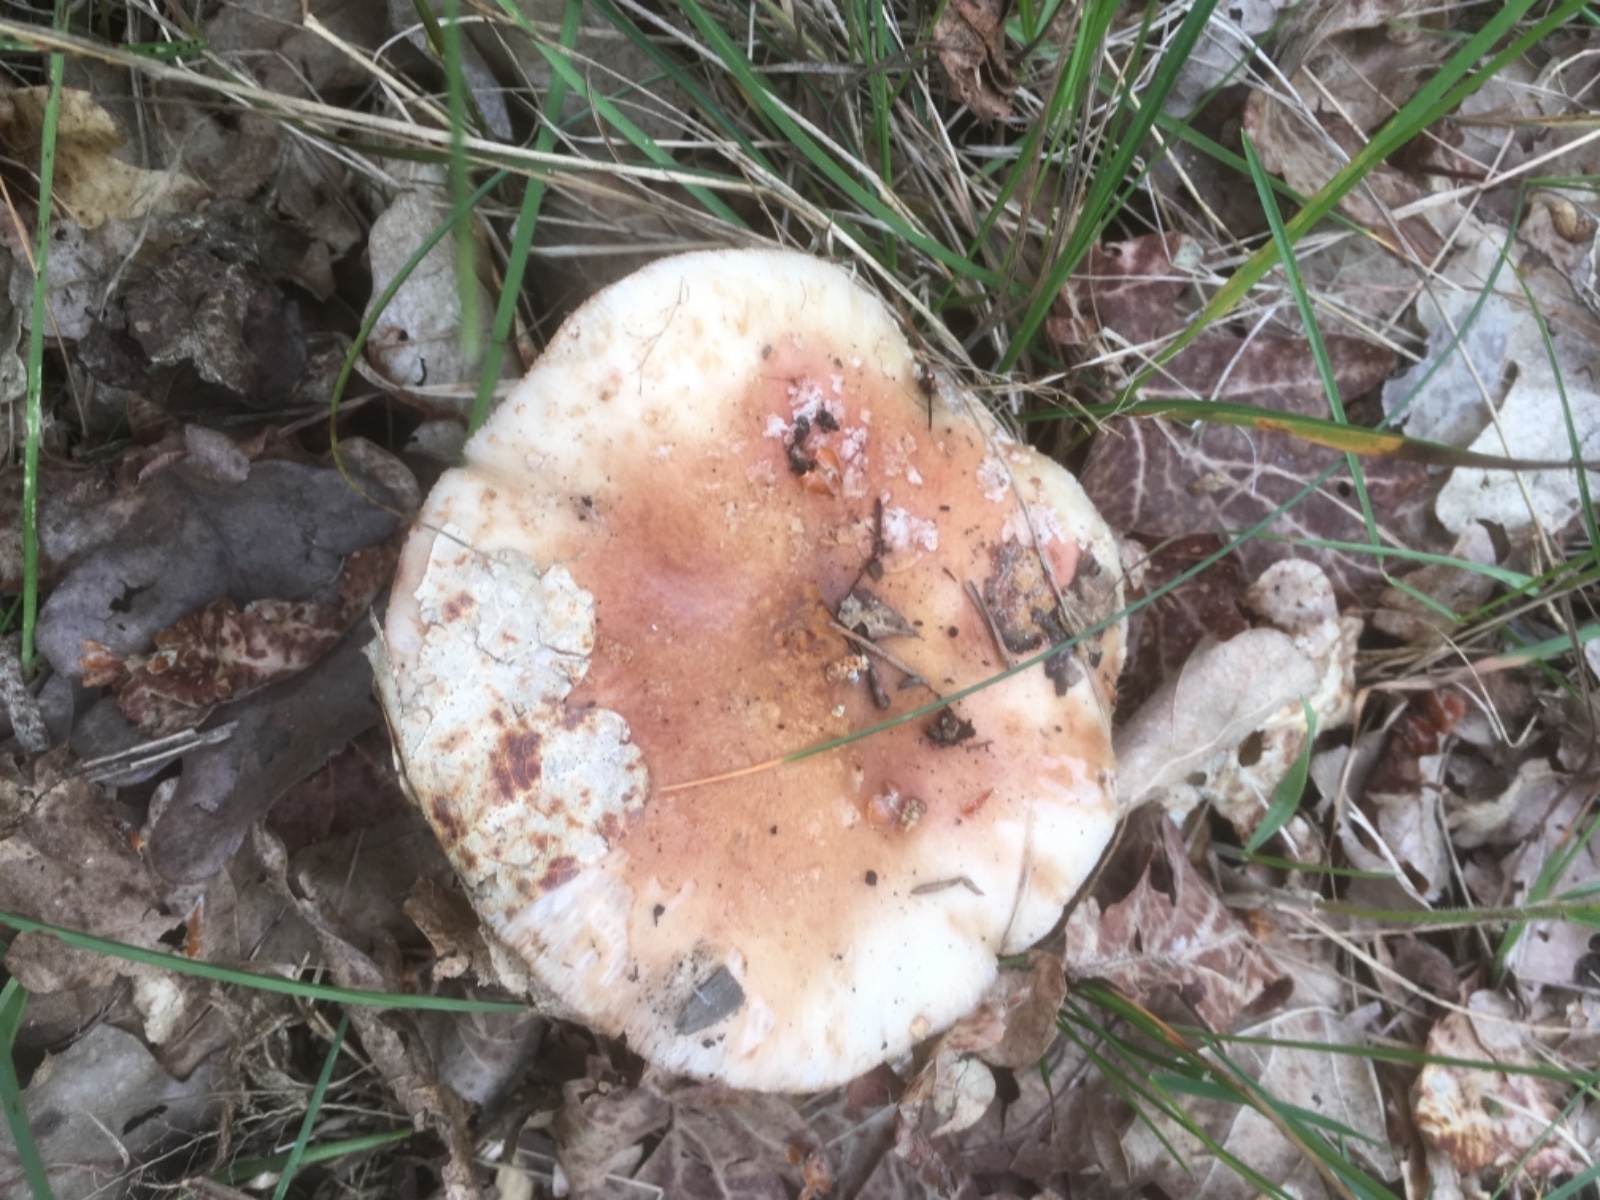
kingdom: Fungi
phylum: Basidiomycota
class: Agaricomycetes
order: Agaricales
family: Amanitaceae
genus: Amanita
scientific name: Amanita rubescens
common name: rødmende fluesvamp
